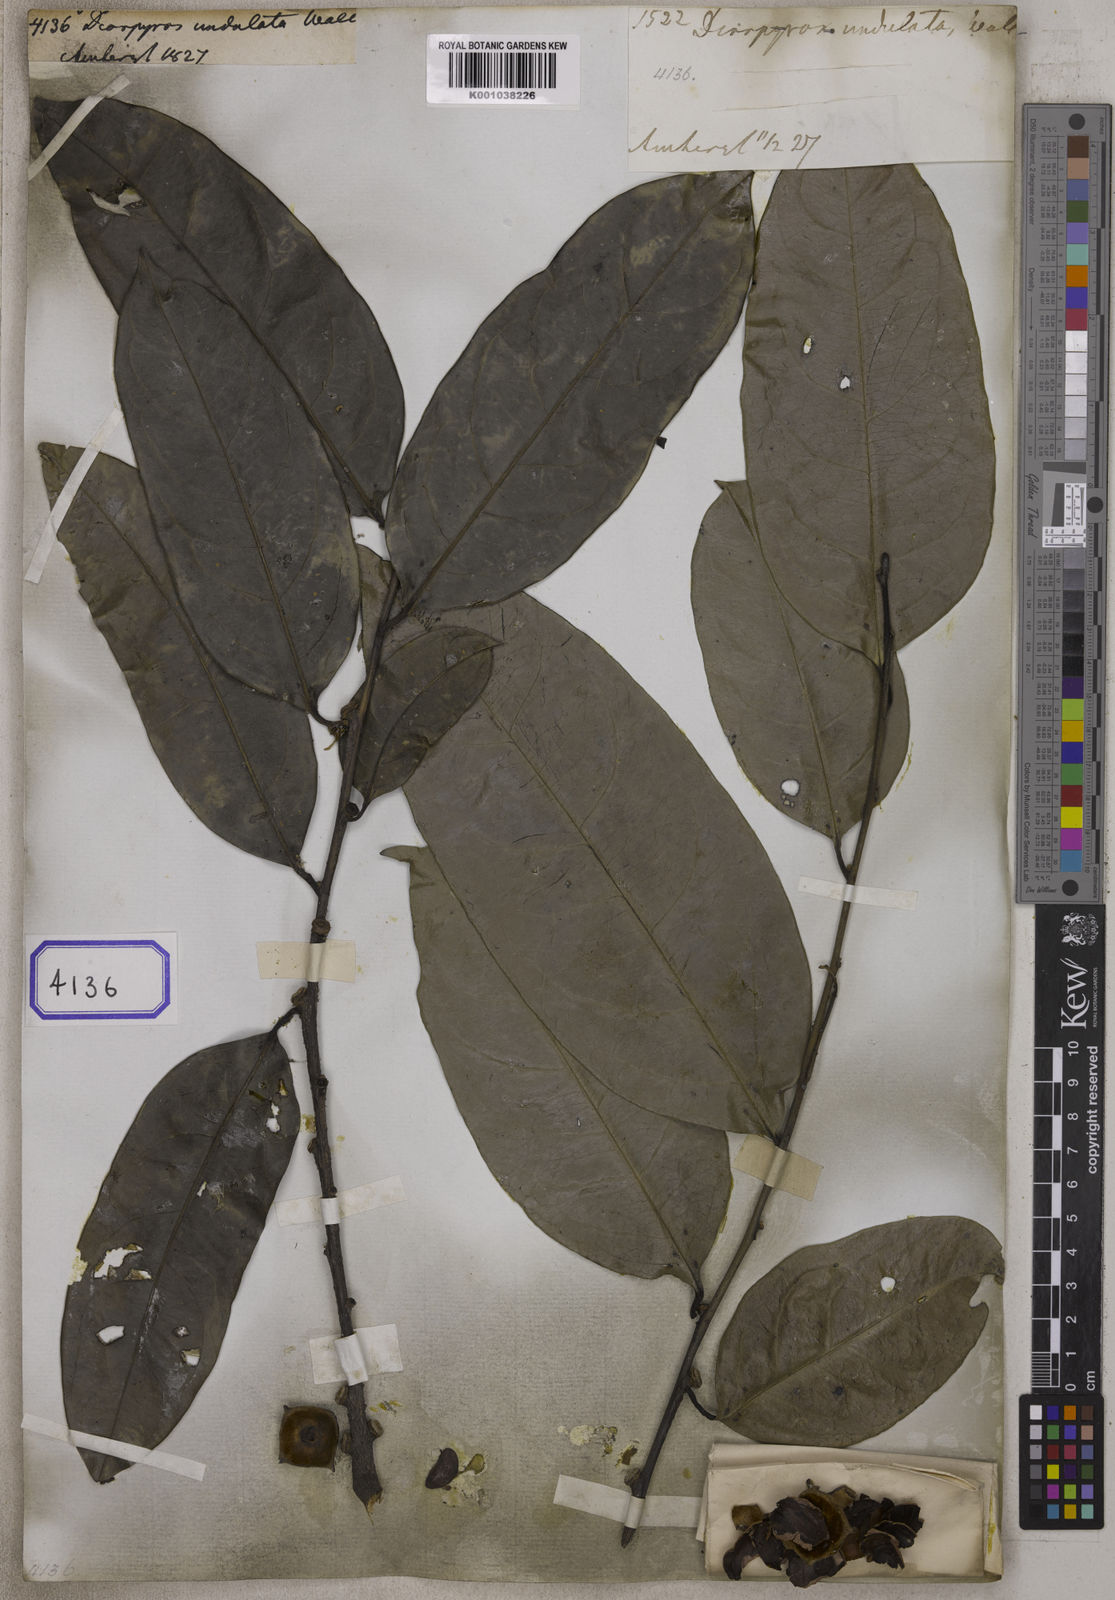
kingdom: Plantae
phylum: Tracheophyta
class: Magnoliopsida
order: Ericales
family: Ebenaceae
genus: Diospyros
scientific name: Diospyros
